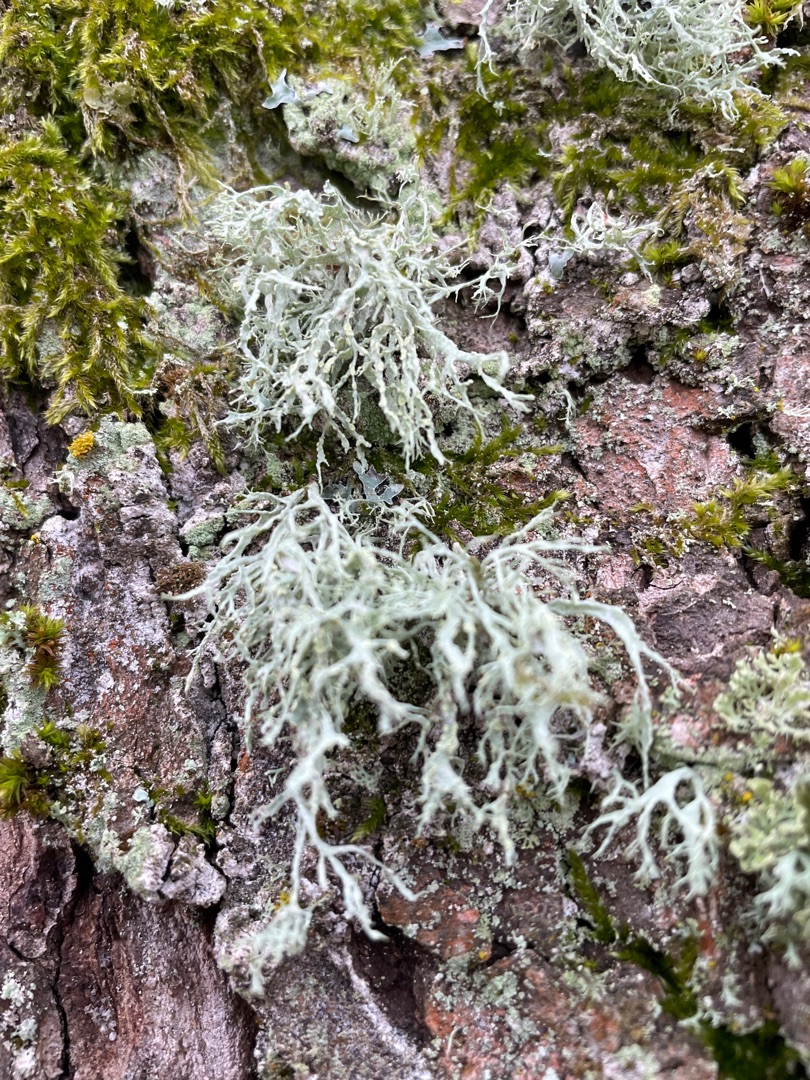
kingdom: Fungi
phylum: Ascomycota
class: Lecanoromycetes
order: Lecanorales
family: Ramalinaceae
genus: Ramalina
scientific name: Ramalina farinacea
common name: Melet grenlav
